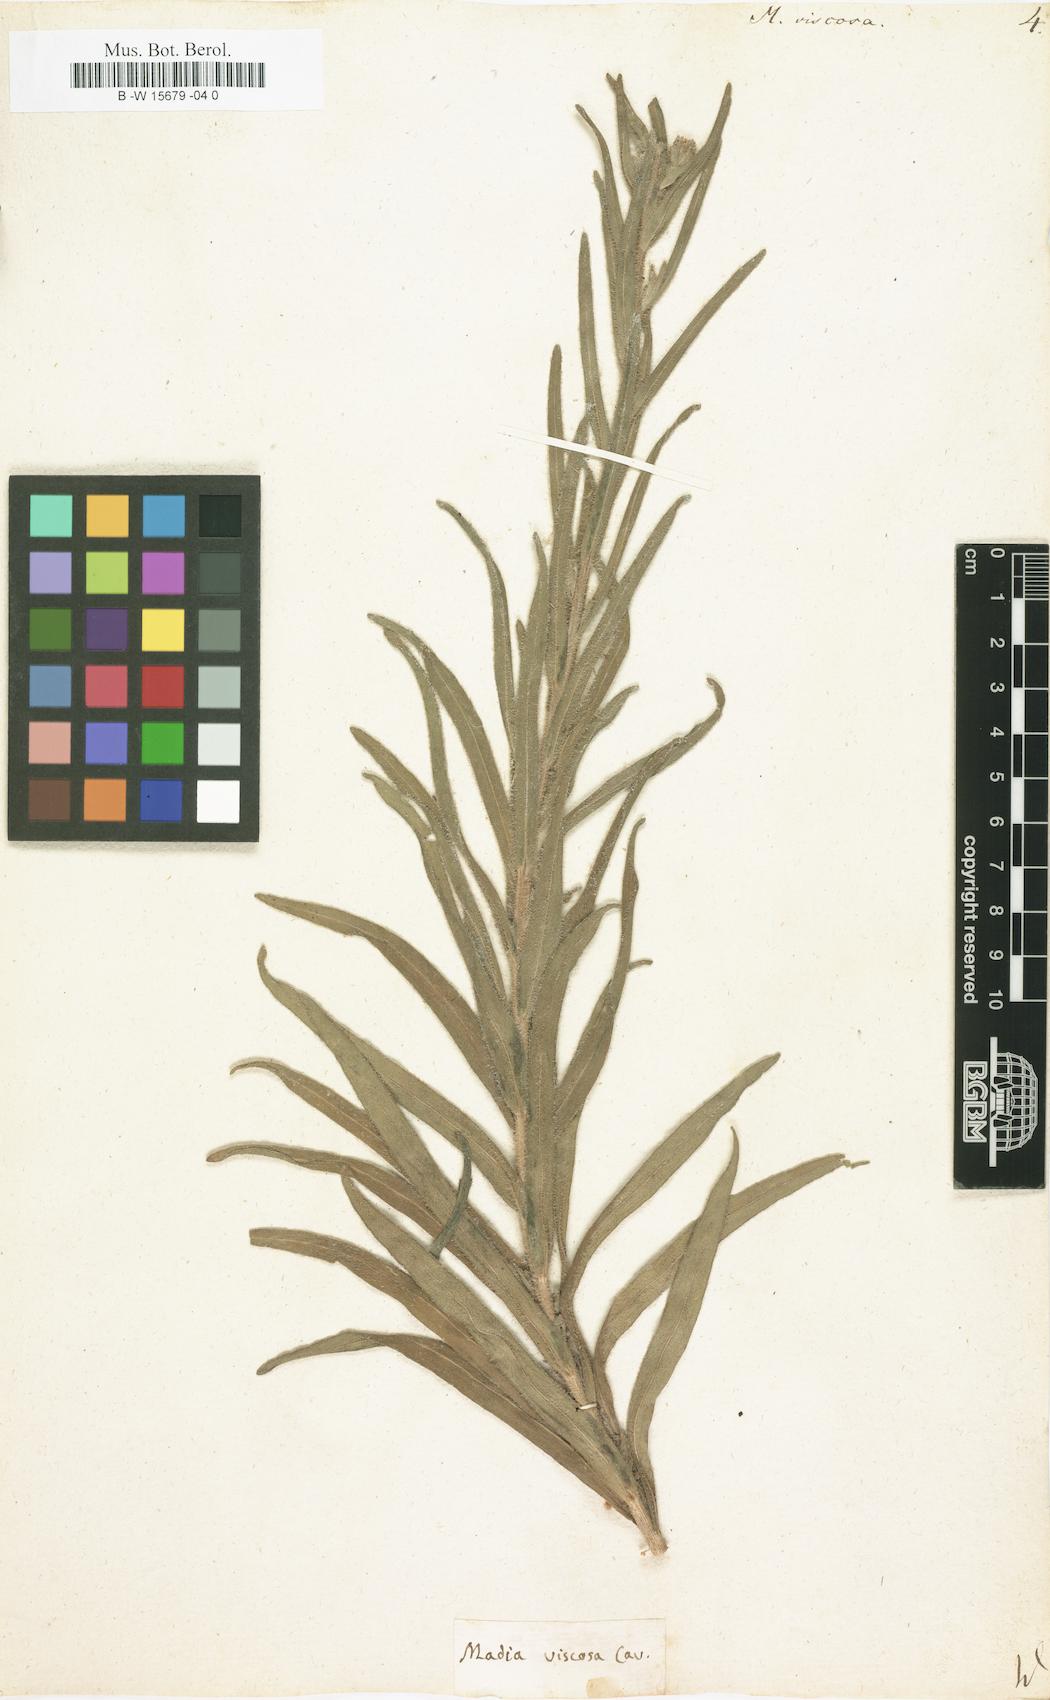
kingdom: Plantae
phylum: Tracheophyta
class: Magnoliopsida
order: Asterales
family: Asteraceae
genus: Madia
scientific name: Madia sativa
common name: Coast tarweed
